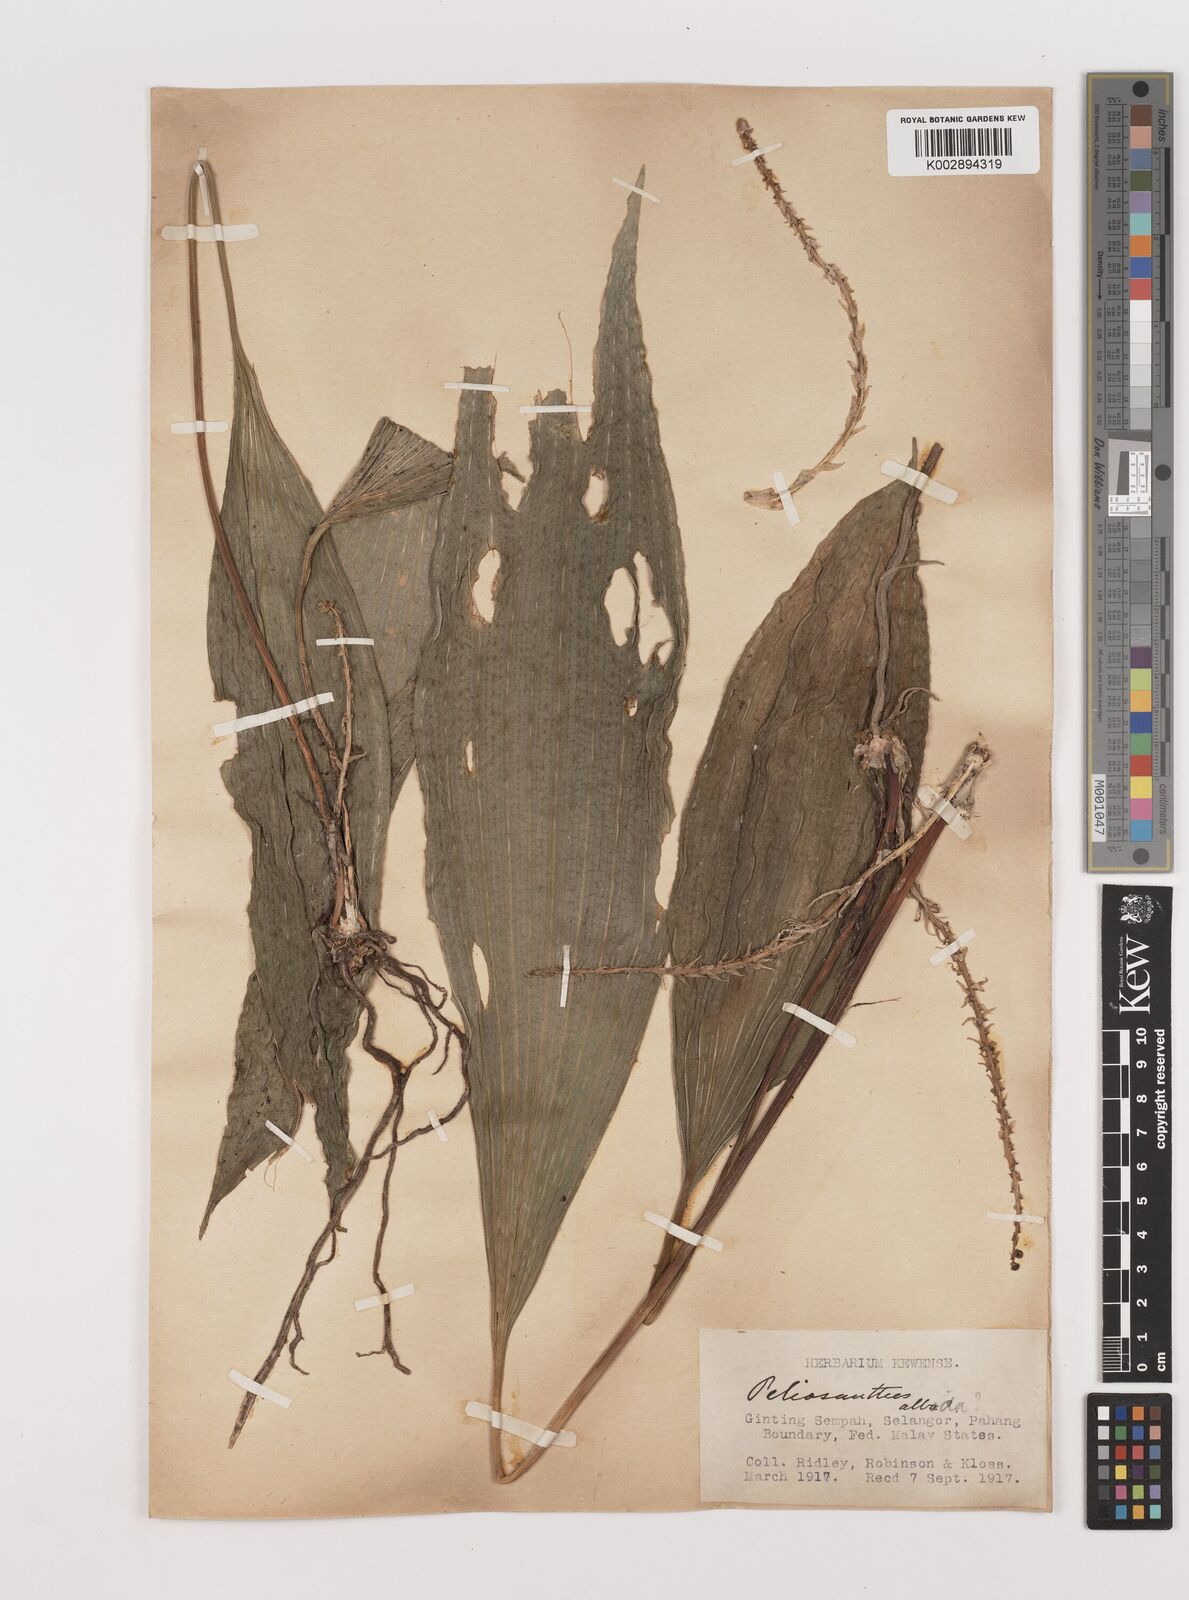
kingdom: Plantae
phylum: Tracheophyta
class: Liliopsida
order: Asparagales
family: Asparagaceae
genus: Peliosanthes
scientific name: Peliosanthes teta
